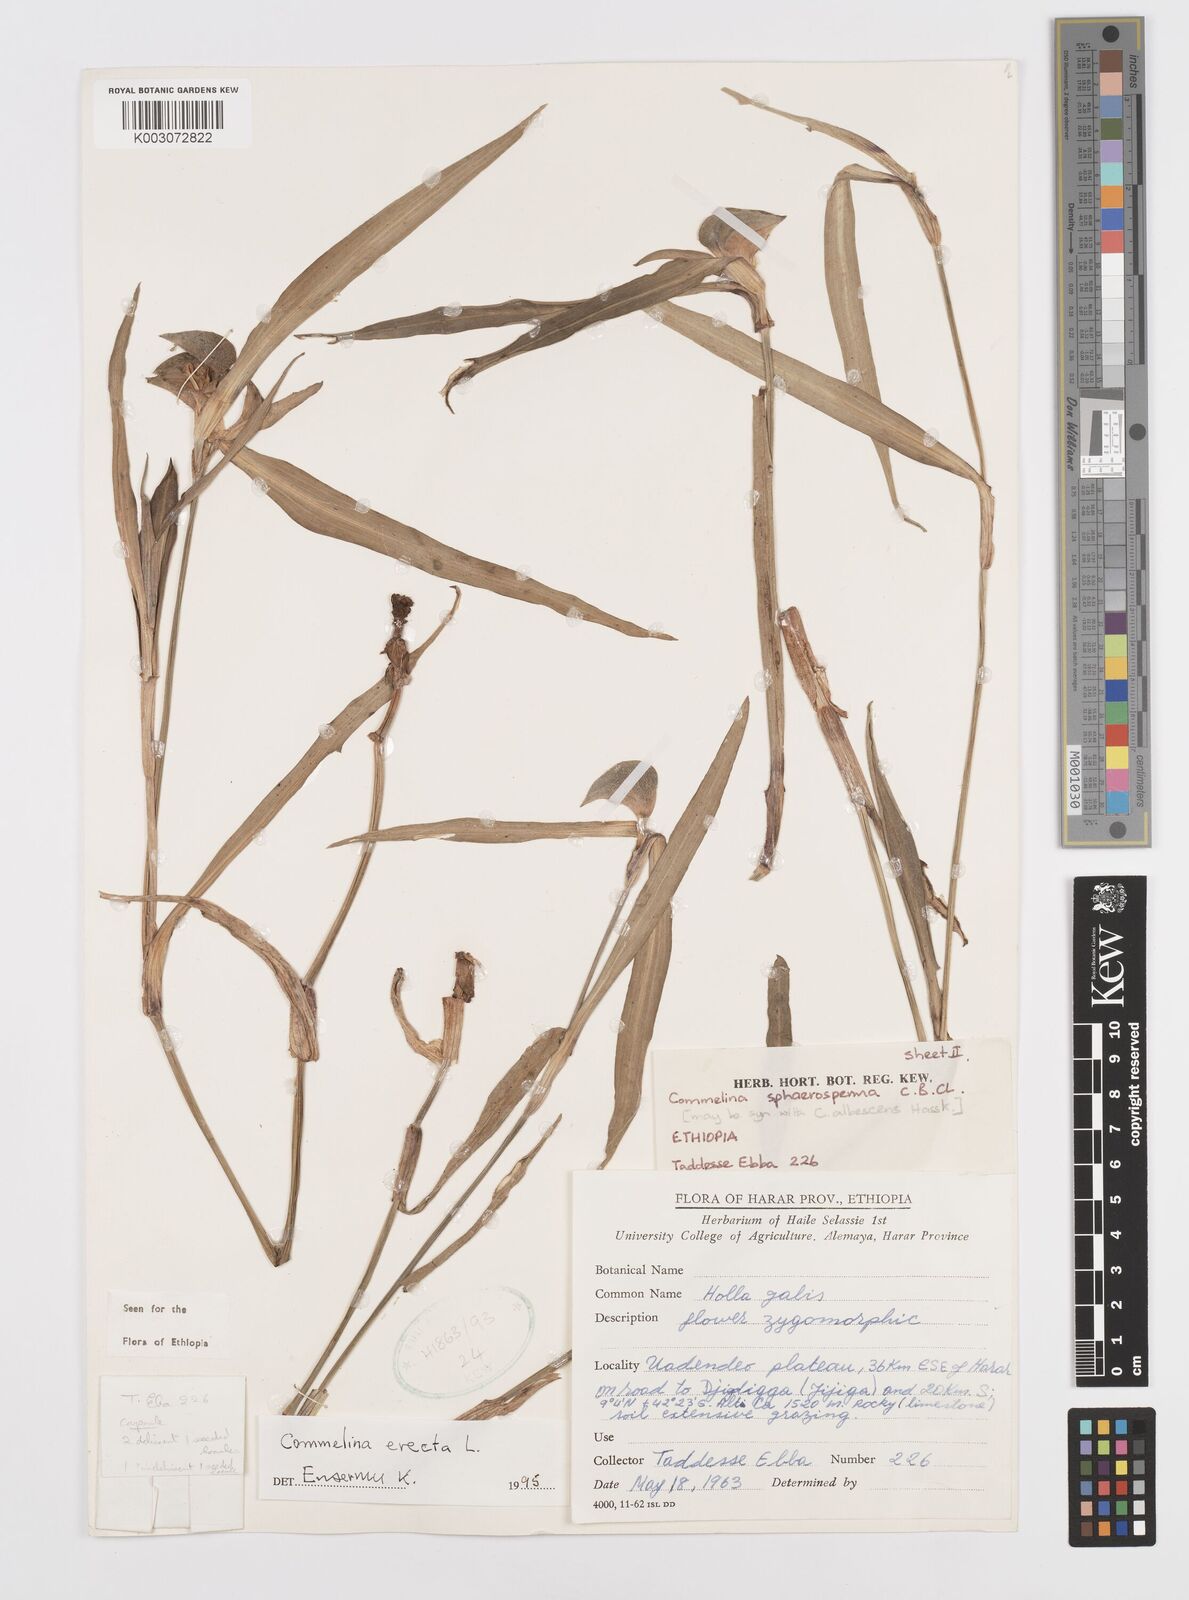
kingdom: Plantae
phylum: Tracheophyta
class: Liliopsida
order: Commelinales
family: Commelinaceae
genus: Commelina
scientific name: Commelina erecta
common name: Blousel blommetjie
